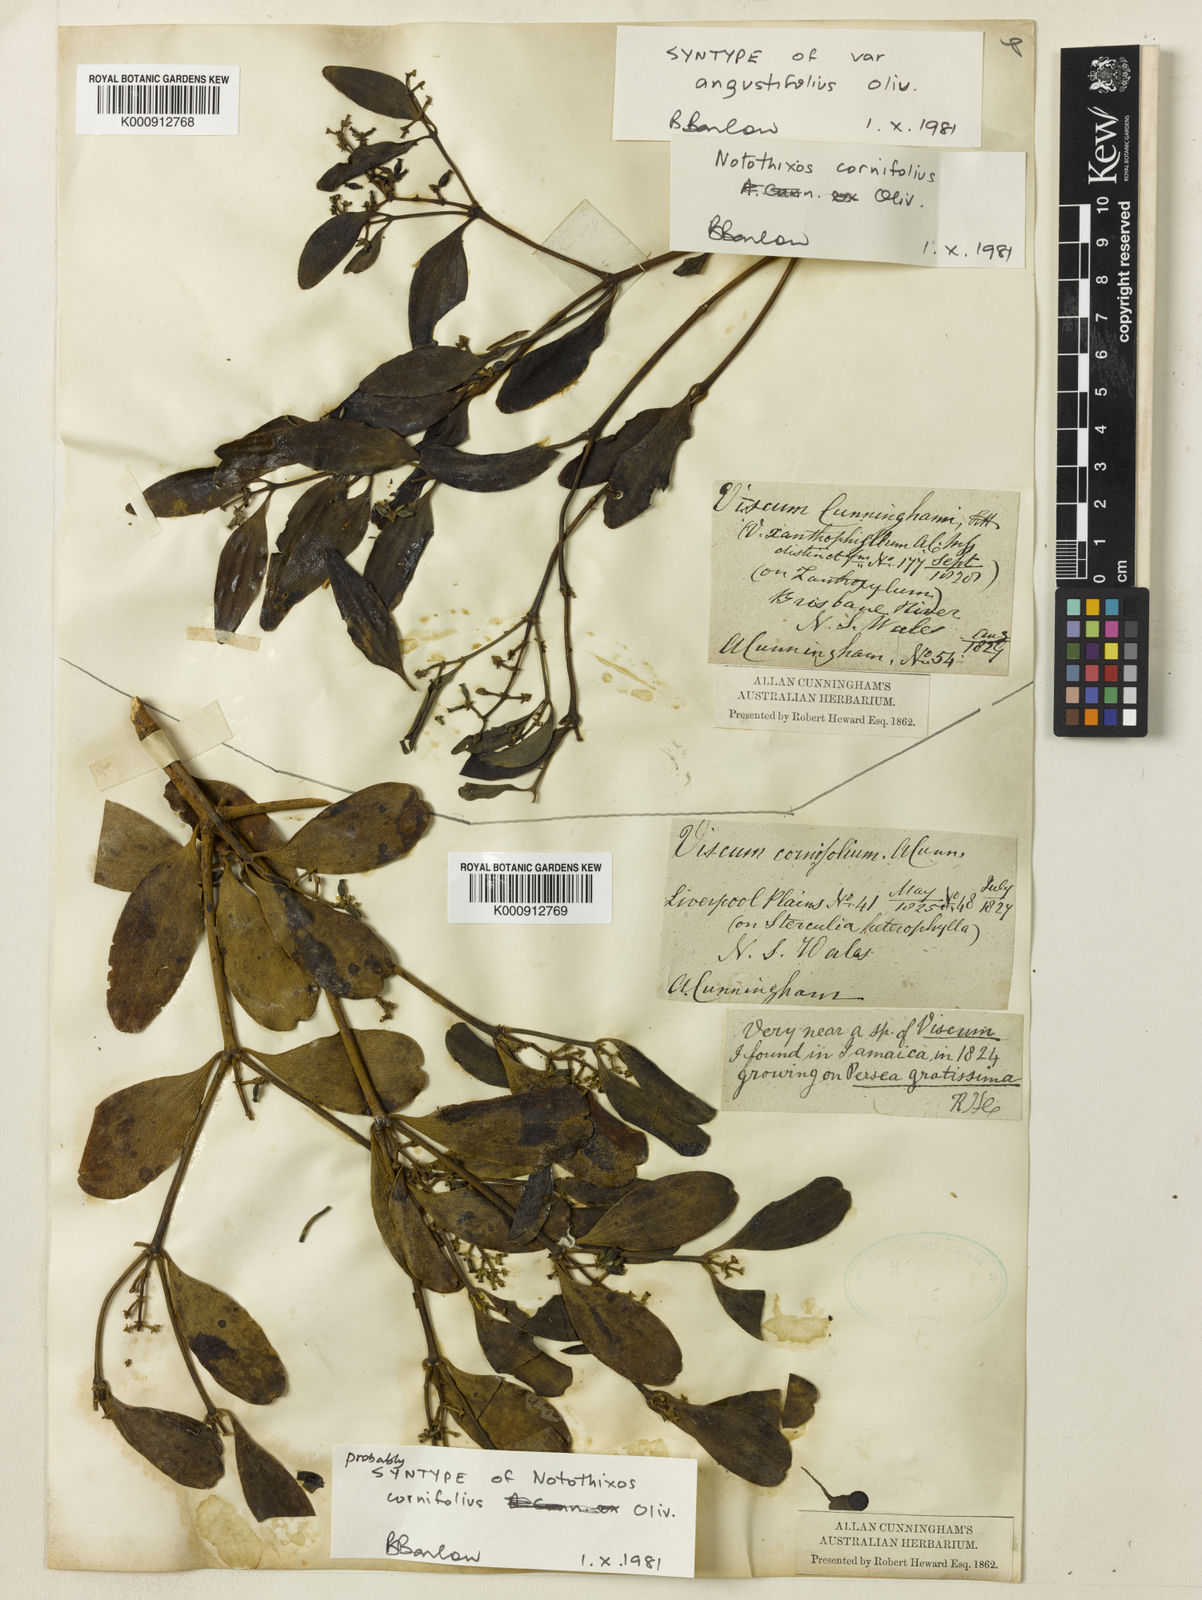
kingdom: Plantae
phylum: Tracheophyta
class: Magnoliopsida
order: Santalales
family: Viscaceae
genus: Notothixos
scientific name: Notothixos cornifolius
